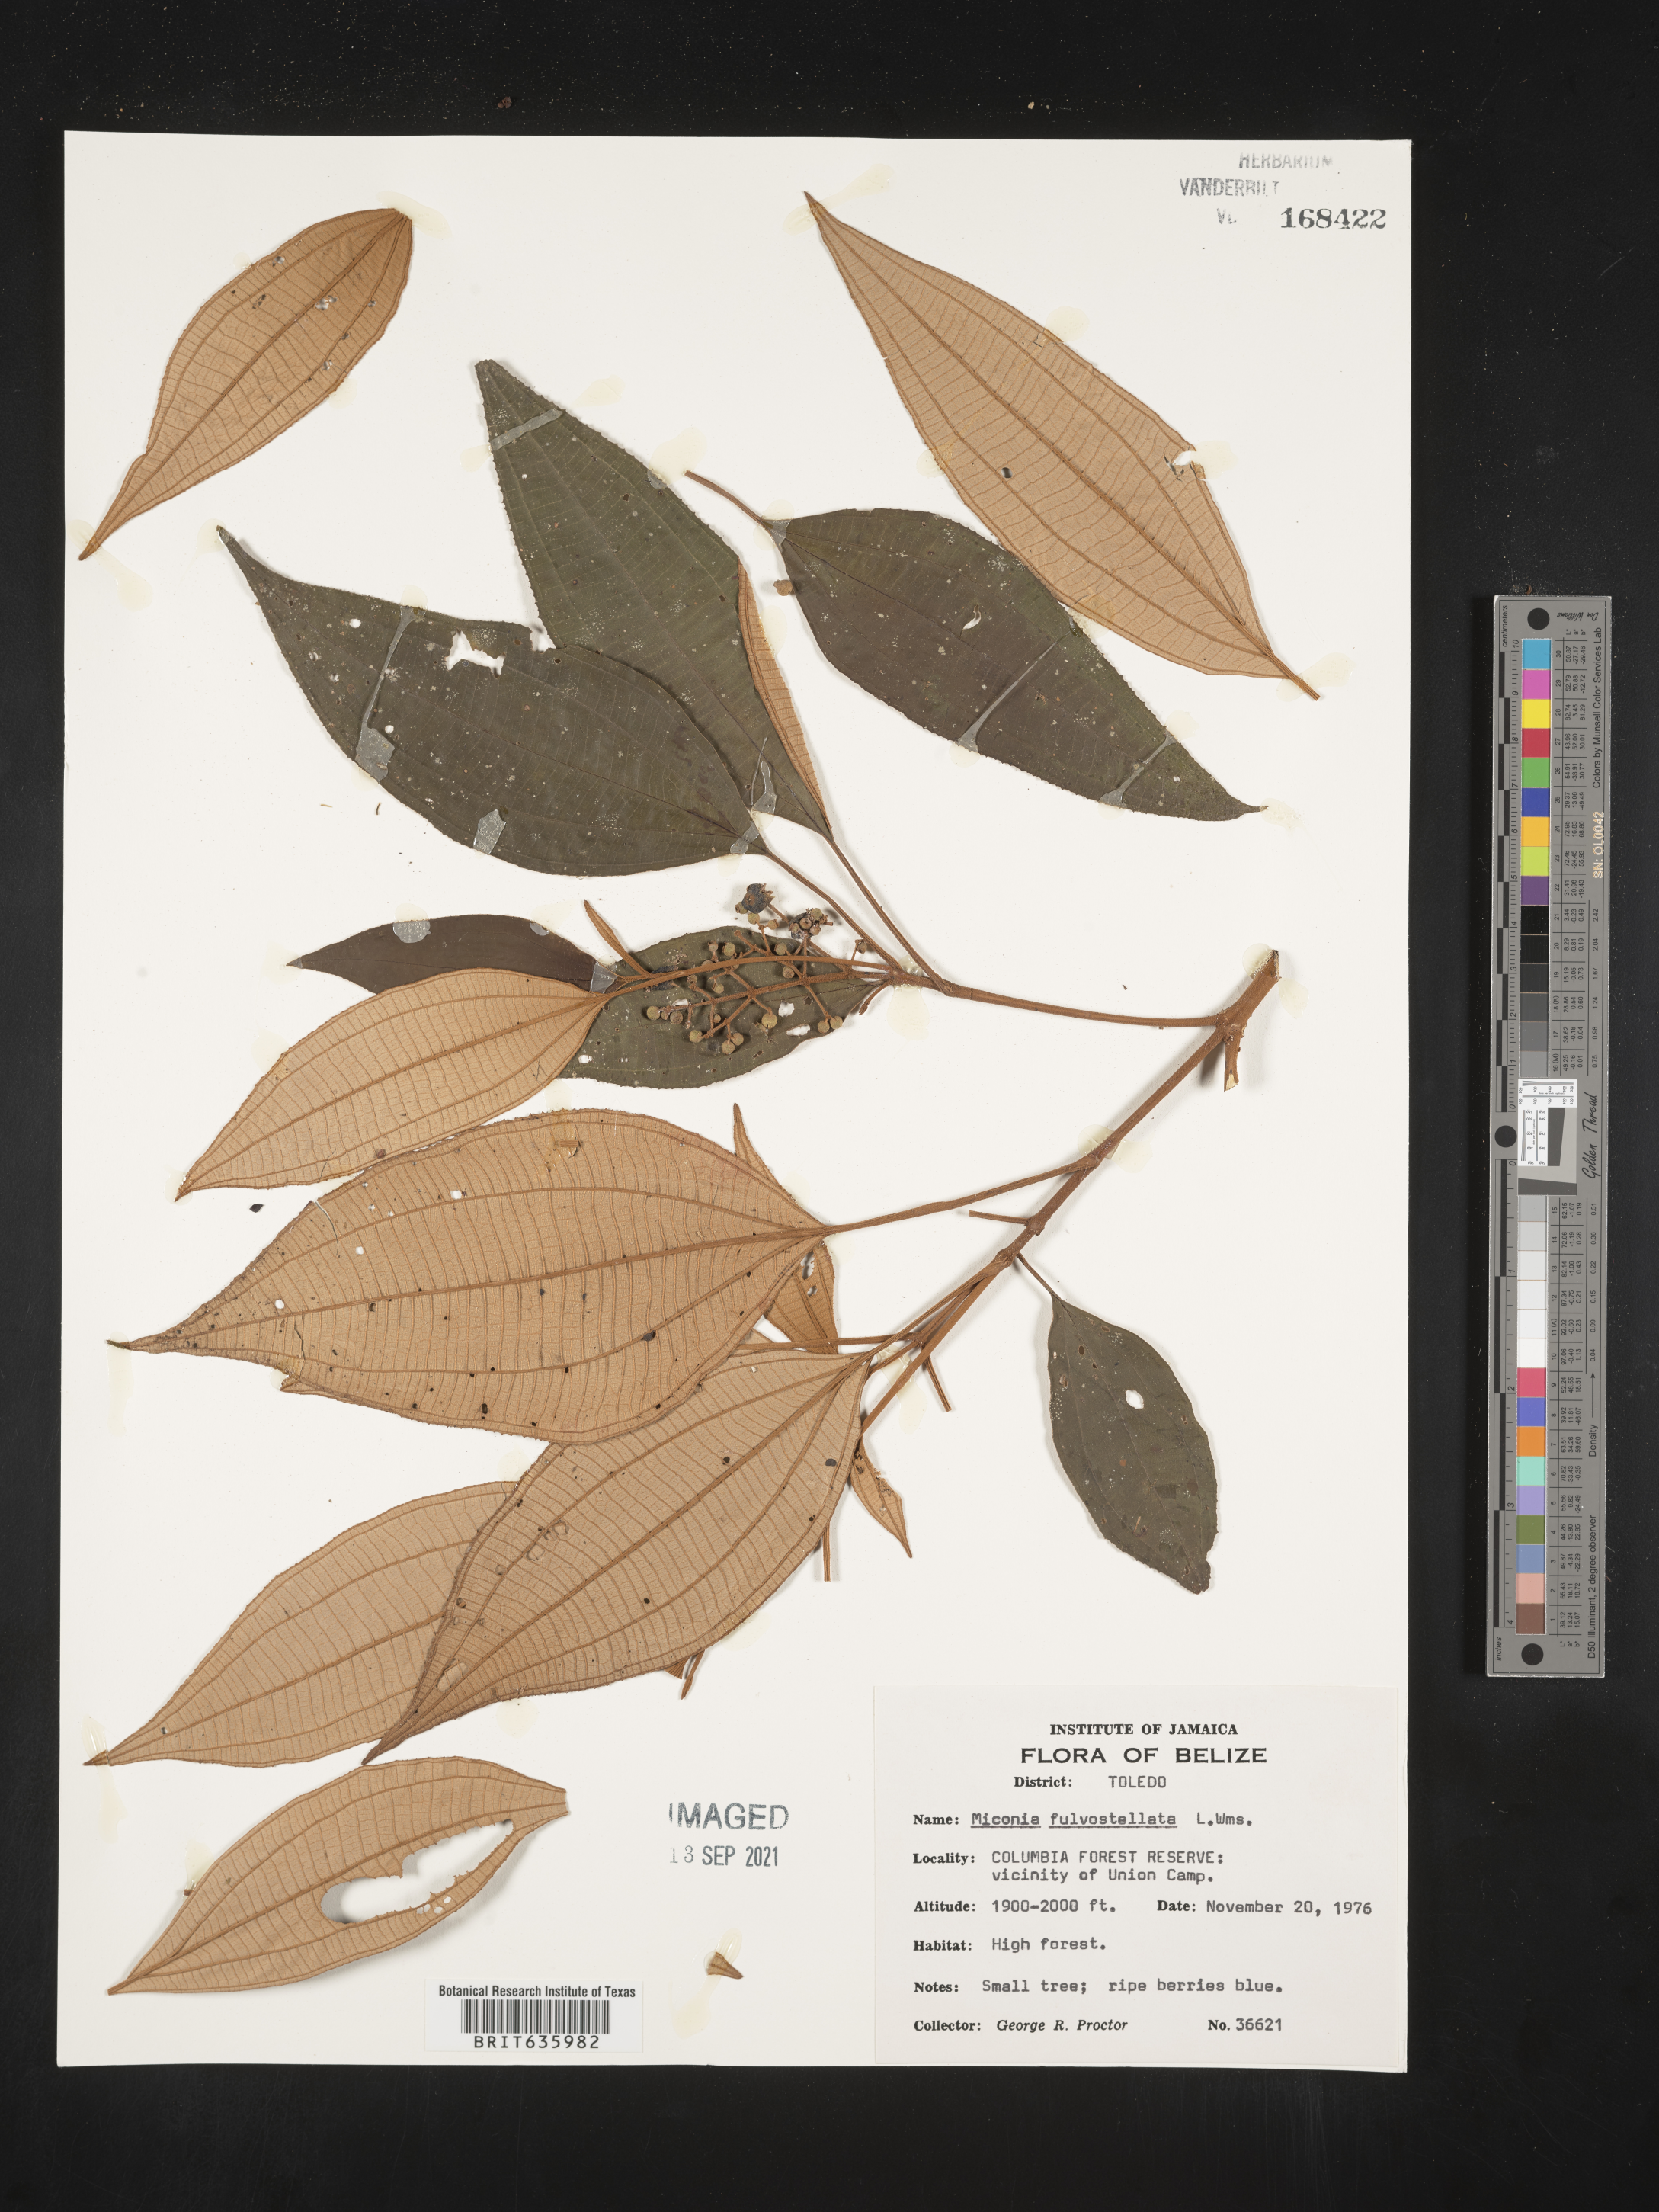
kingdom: Plantae
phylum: Tracheophyta
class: Magnoliopsida
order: Myrtales
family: Melastomataceae
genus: Miconia
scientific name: Miconia
